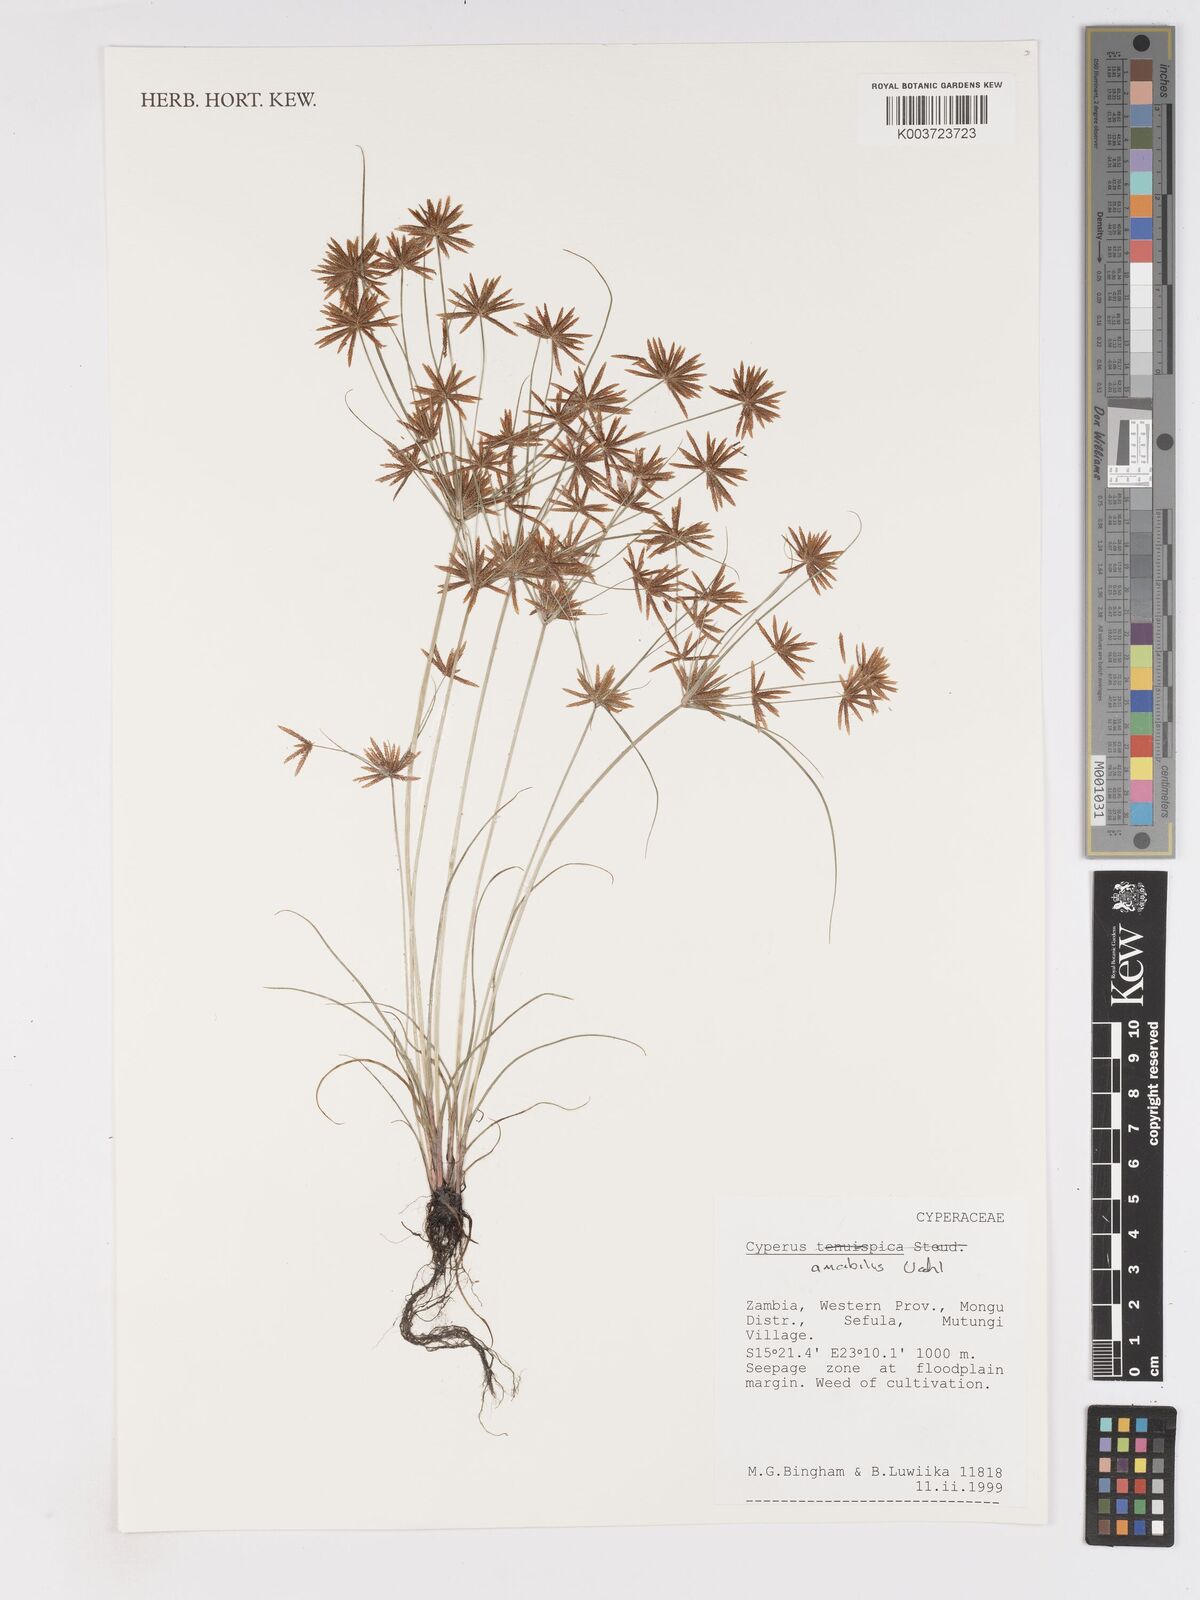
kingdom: Plantae
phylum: Tracheophyta
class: Liliopsida
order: Poales
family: Cyperaceae
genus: Cyperus
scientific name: Cyperus amabilis
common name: Foothill flat sedge
